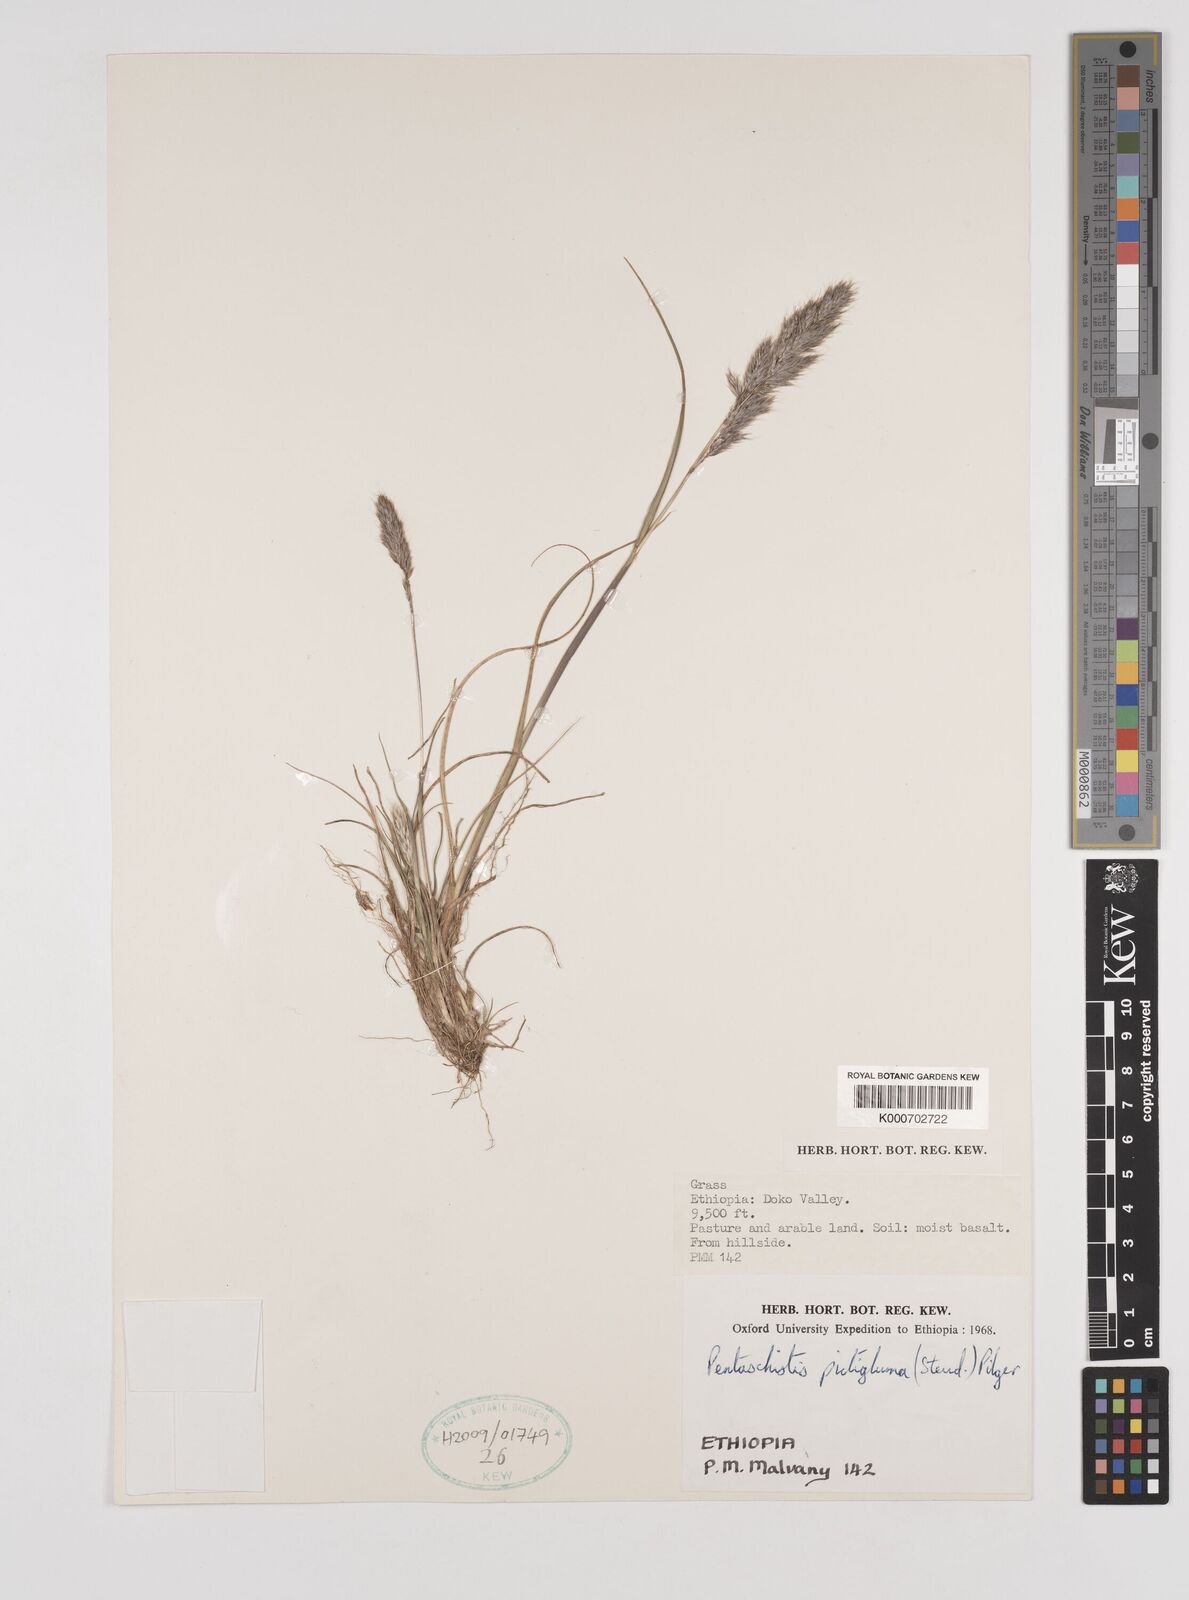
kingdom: Plantae
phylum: Tracheophyta
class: Liliopsida
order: Poales
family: Poaceae
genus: Pentameris
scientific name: Pentameris pictigluma
